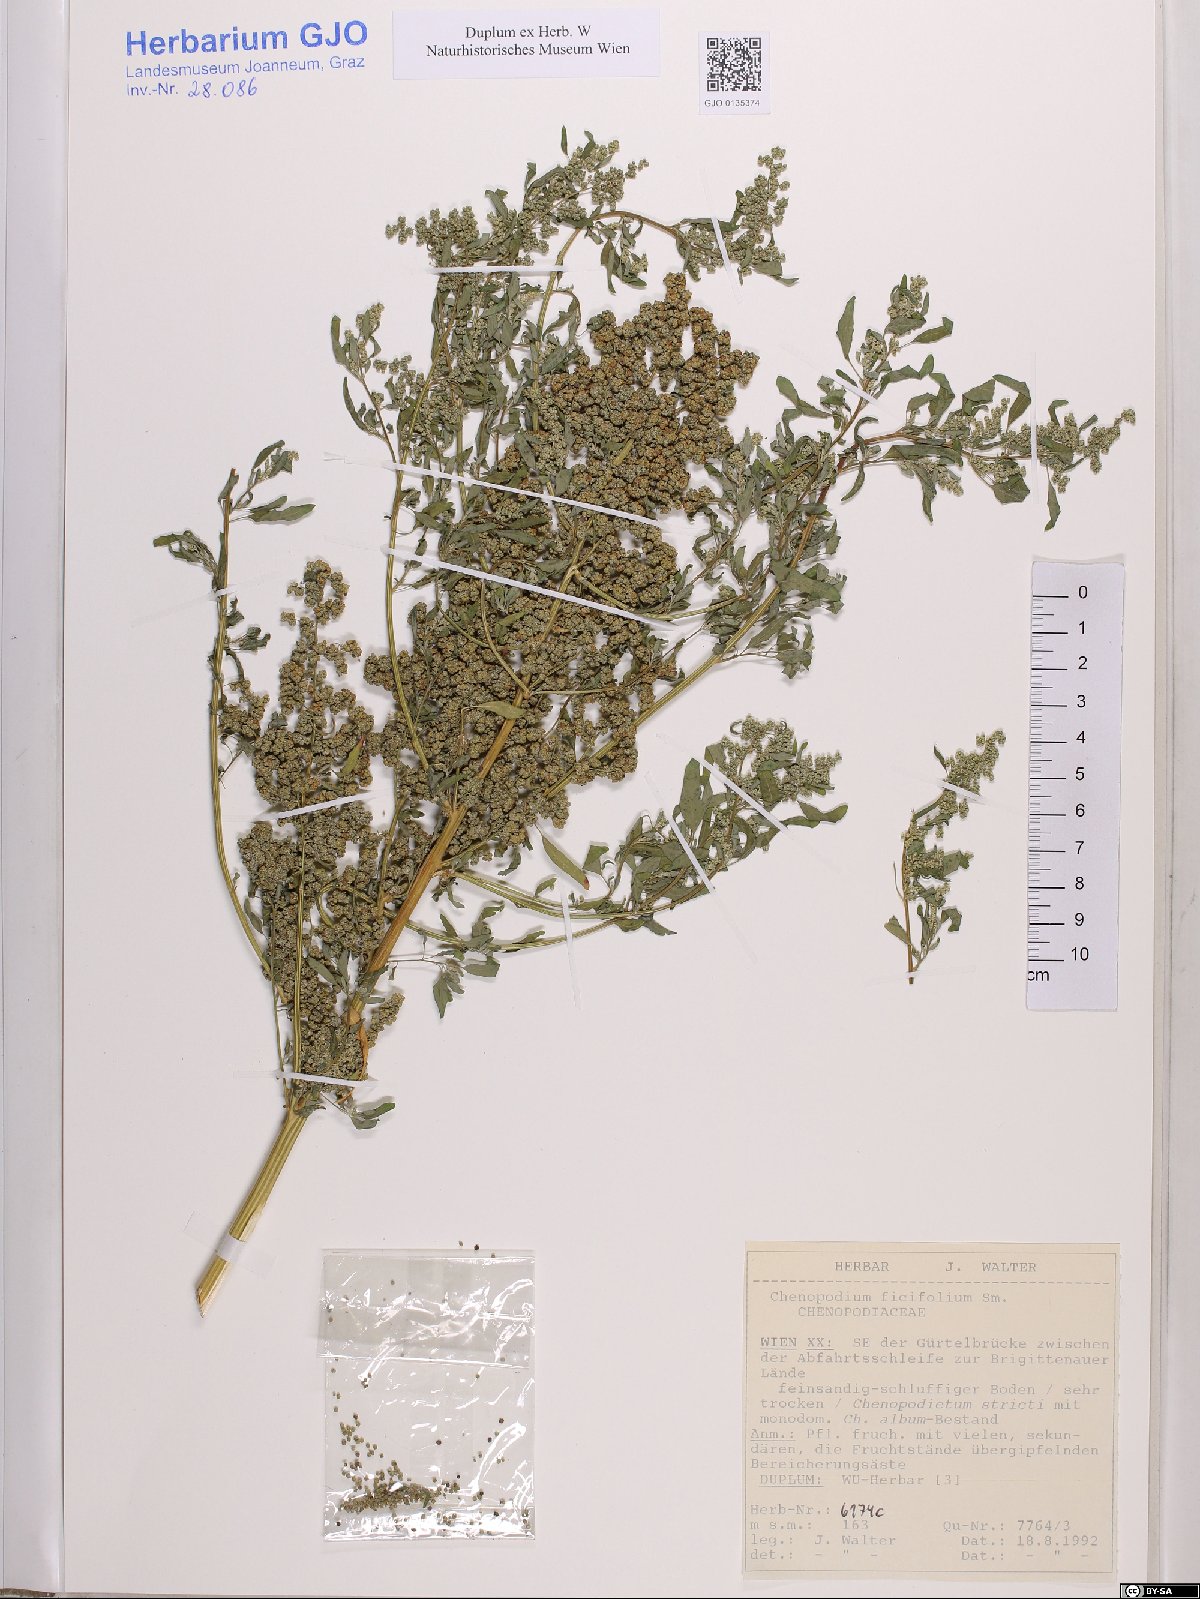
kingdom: Plantae
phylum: Tracheophyta
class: Magnoliopsida
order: Caryophyllales
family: Amaranthaceae
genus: Chenopodium
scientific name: Chenopodium ficifolium
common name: Fig-leaved goosefoot
